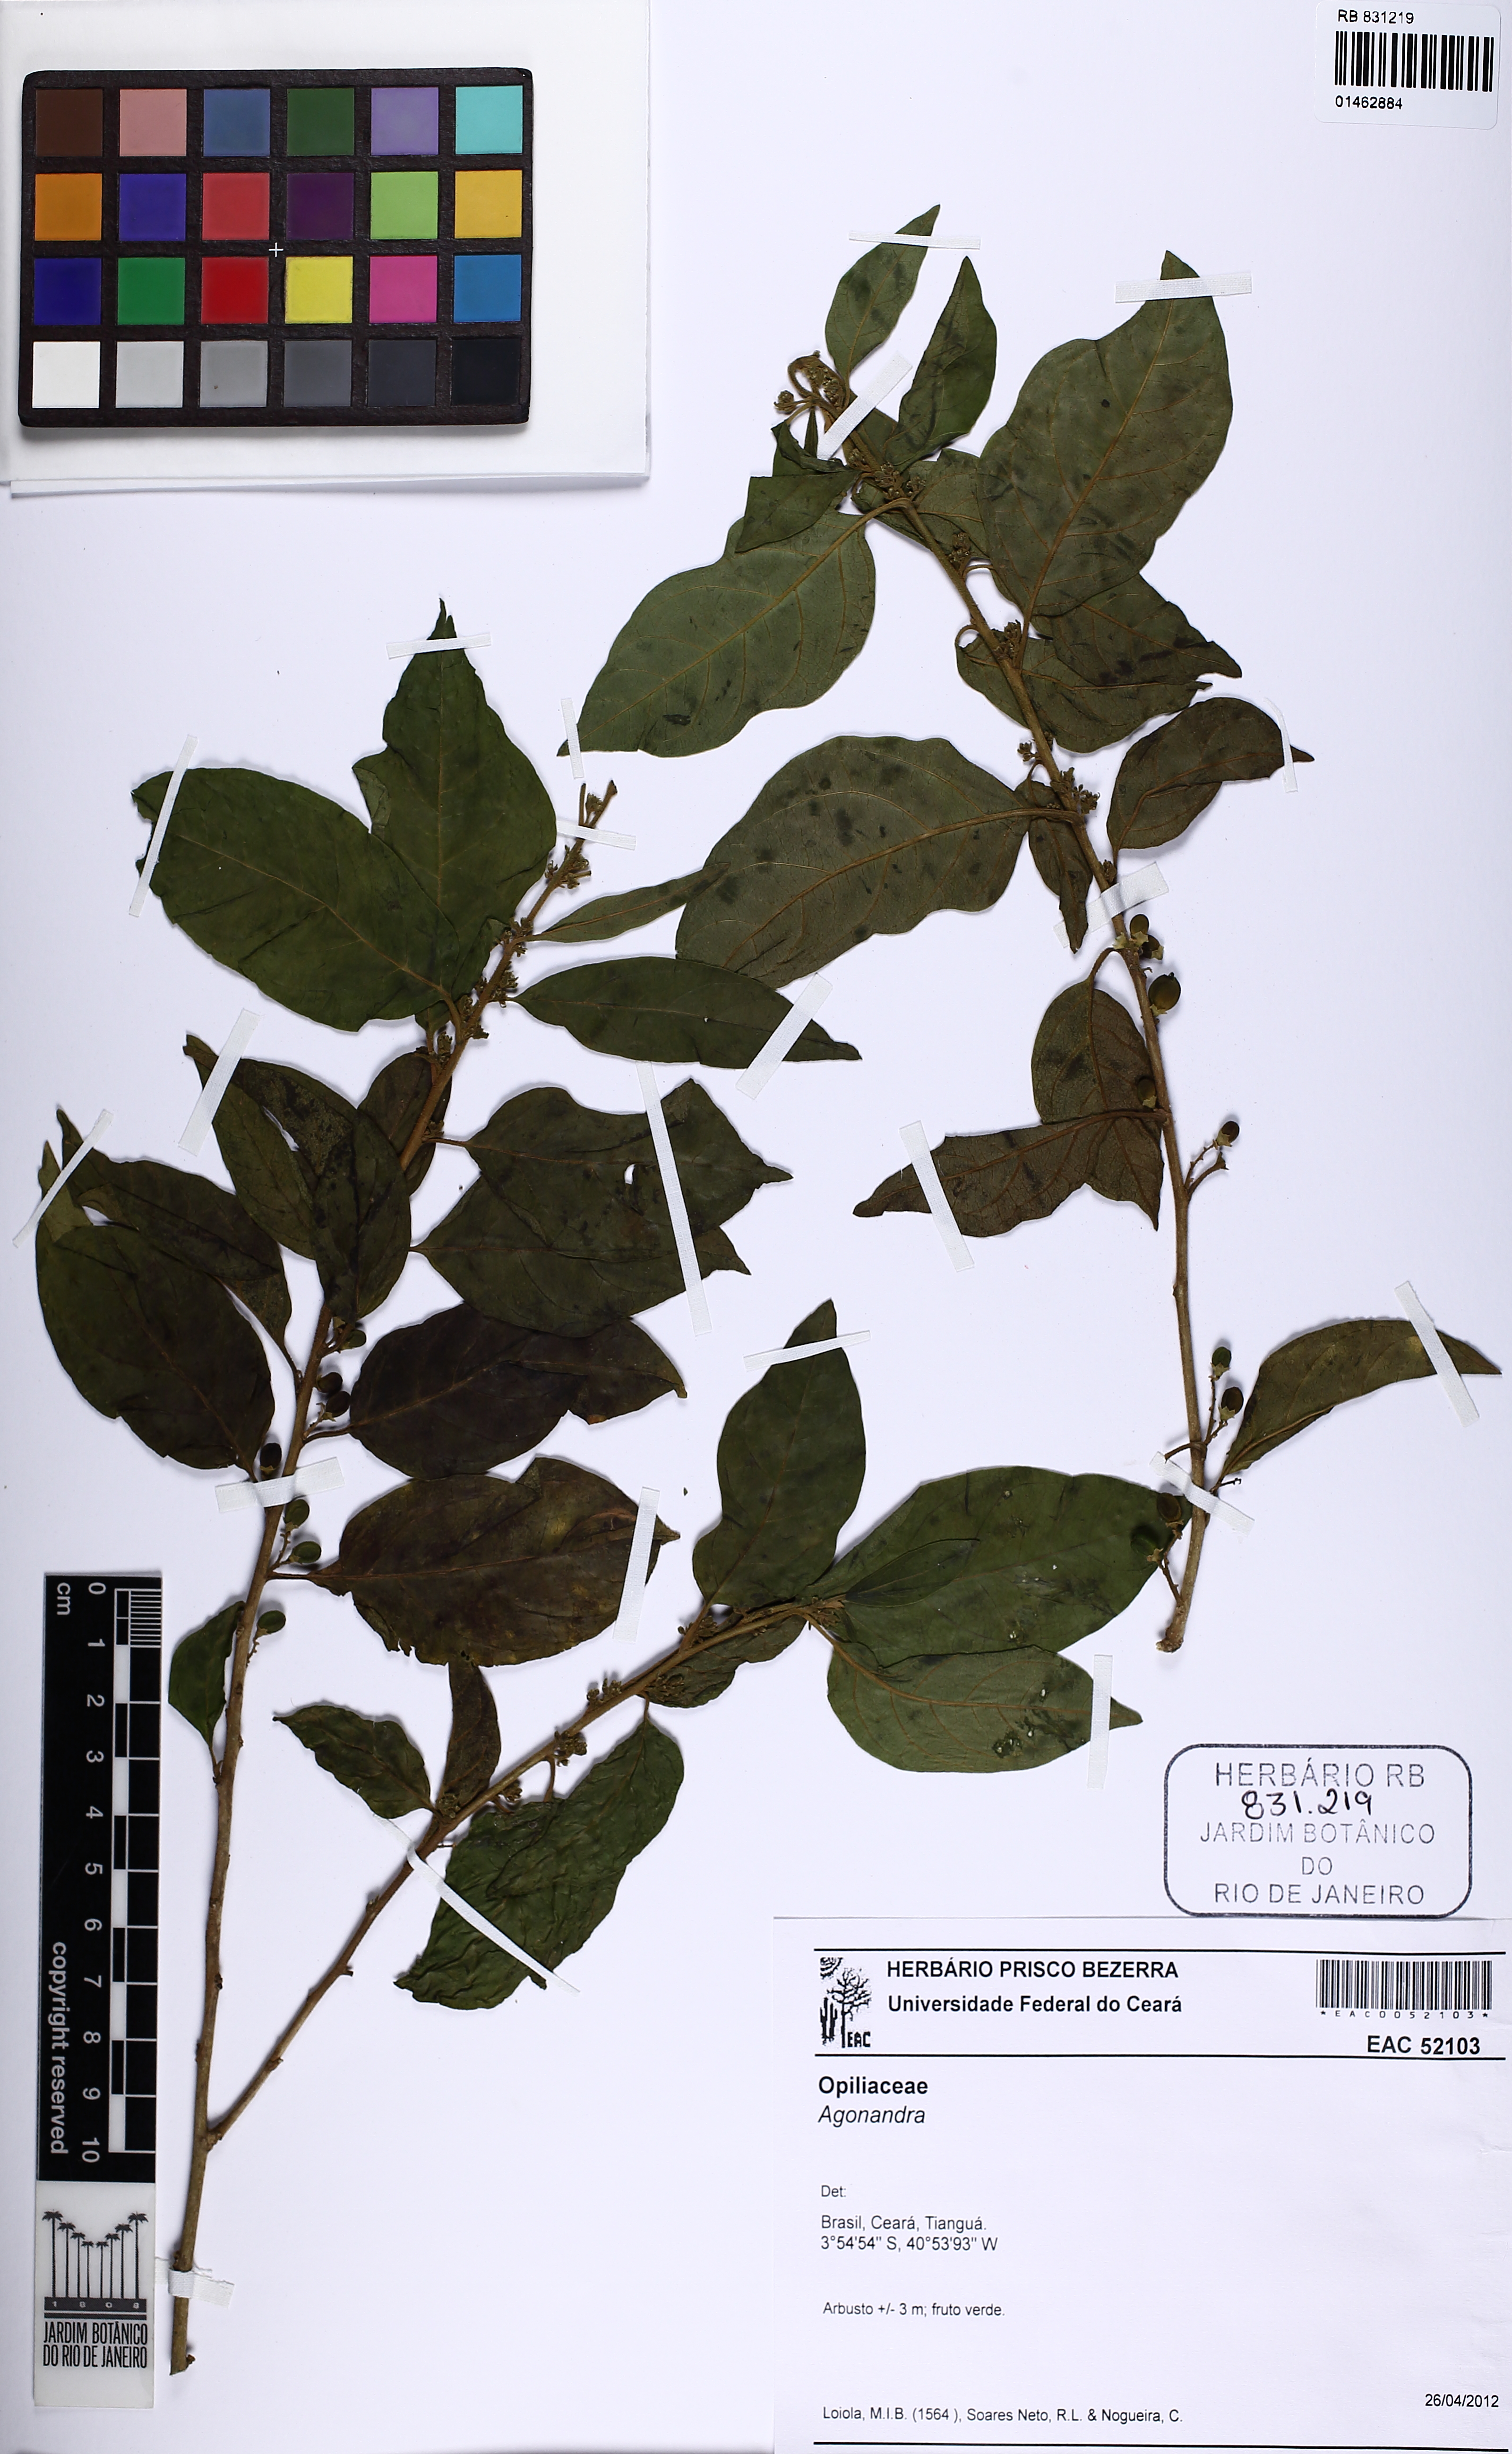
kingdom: Plantae
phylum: Tracheophyta
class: Magnoliopsida
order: Solanales
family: Solanaceae
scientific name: Solanaceae
